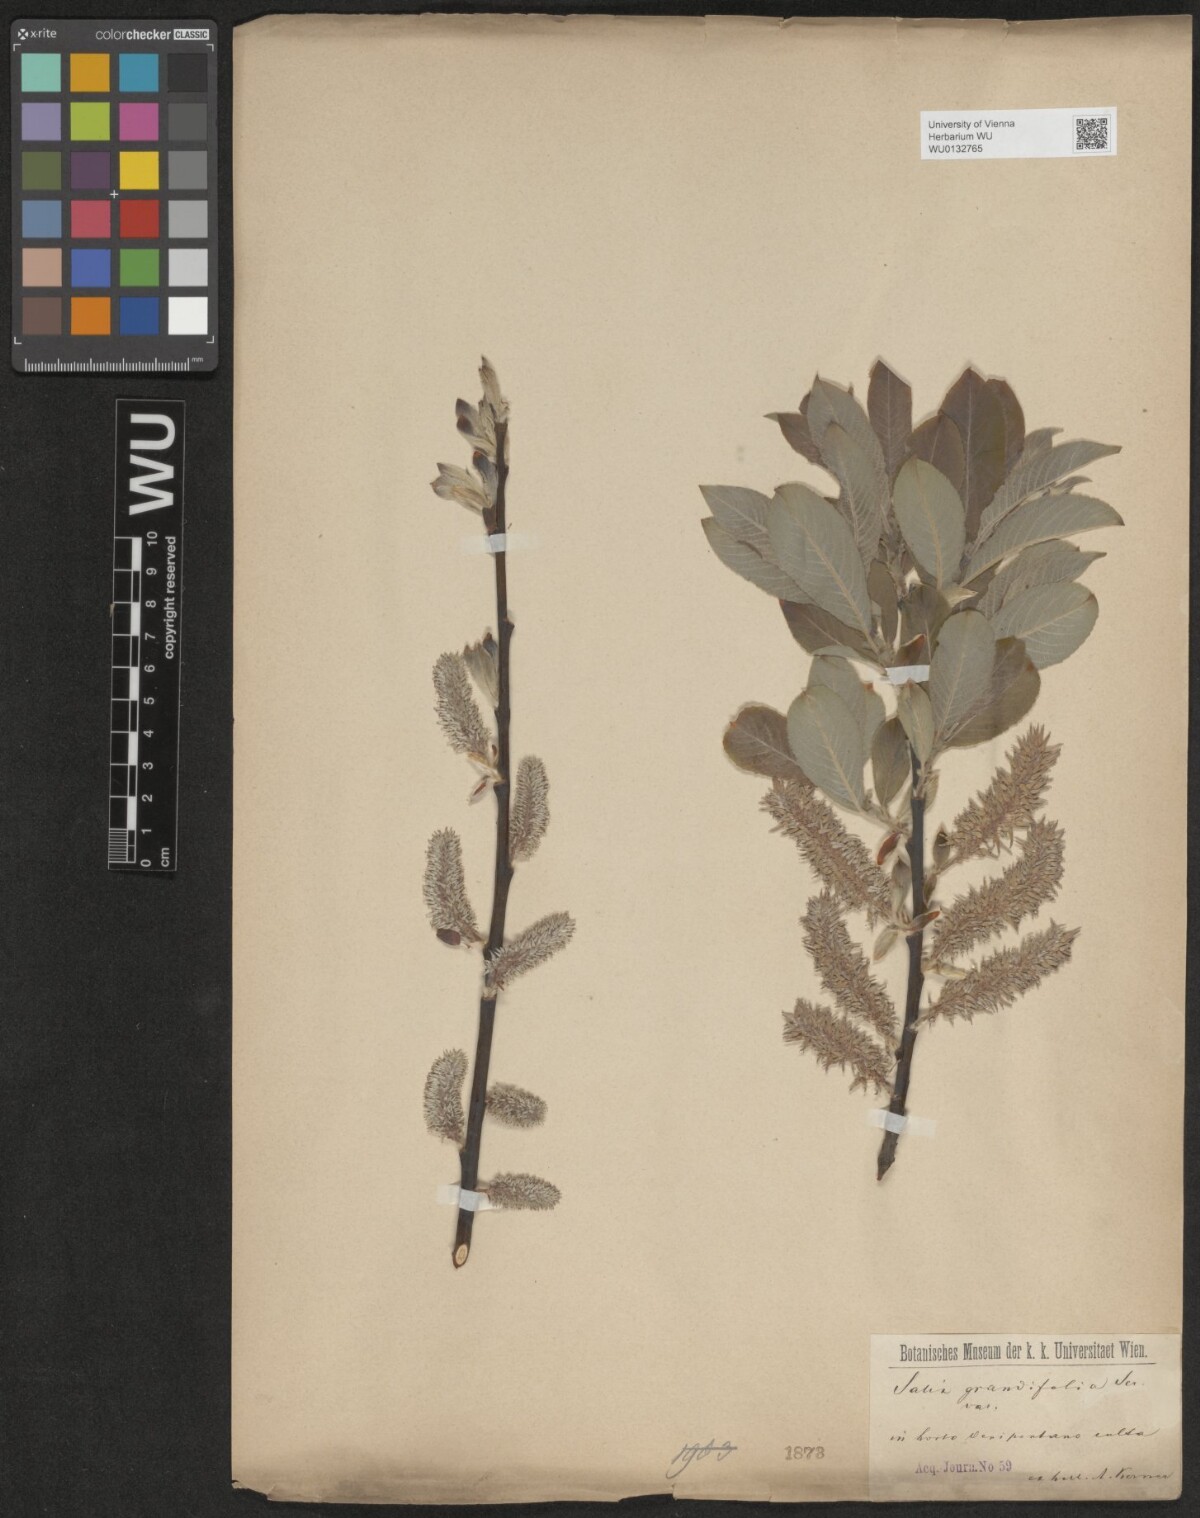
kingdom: Plantae
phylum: Tracheophyta
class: Magnoliopsida
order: Malpighiales
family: Salicaceae
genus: Salix
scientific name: Salix appendiculata
